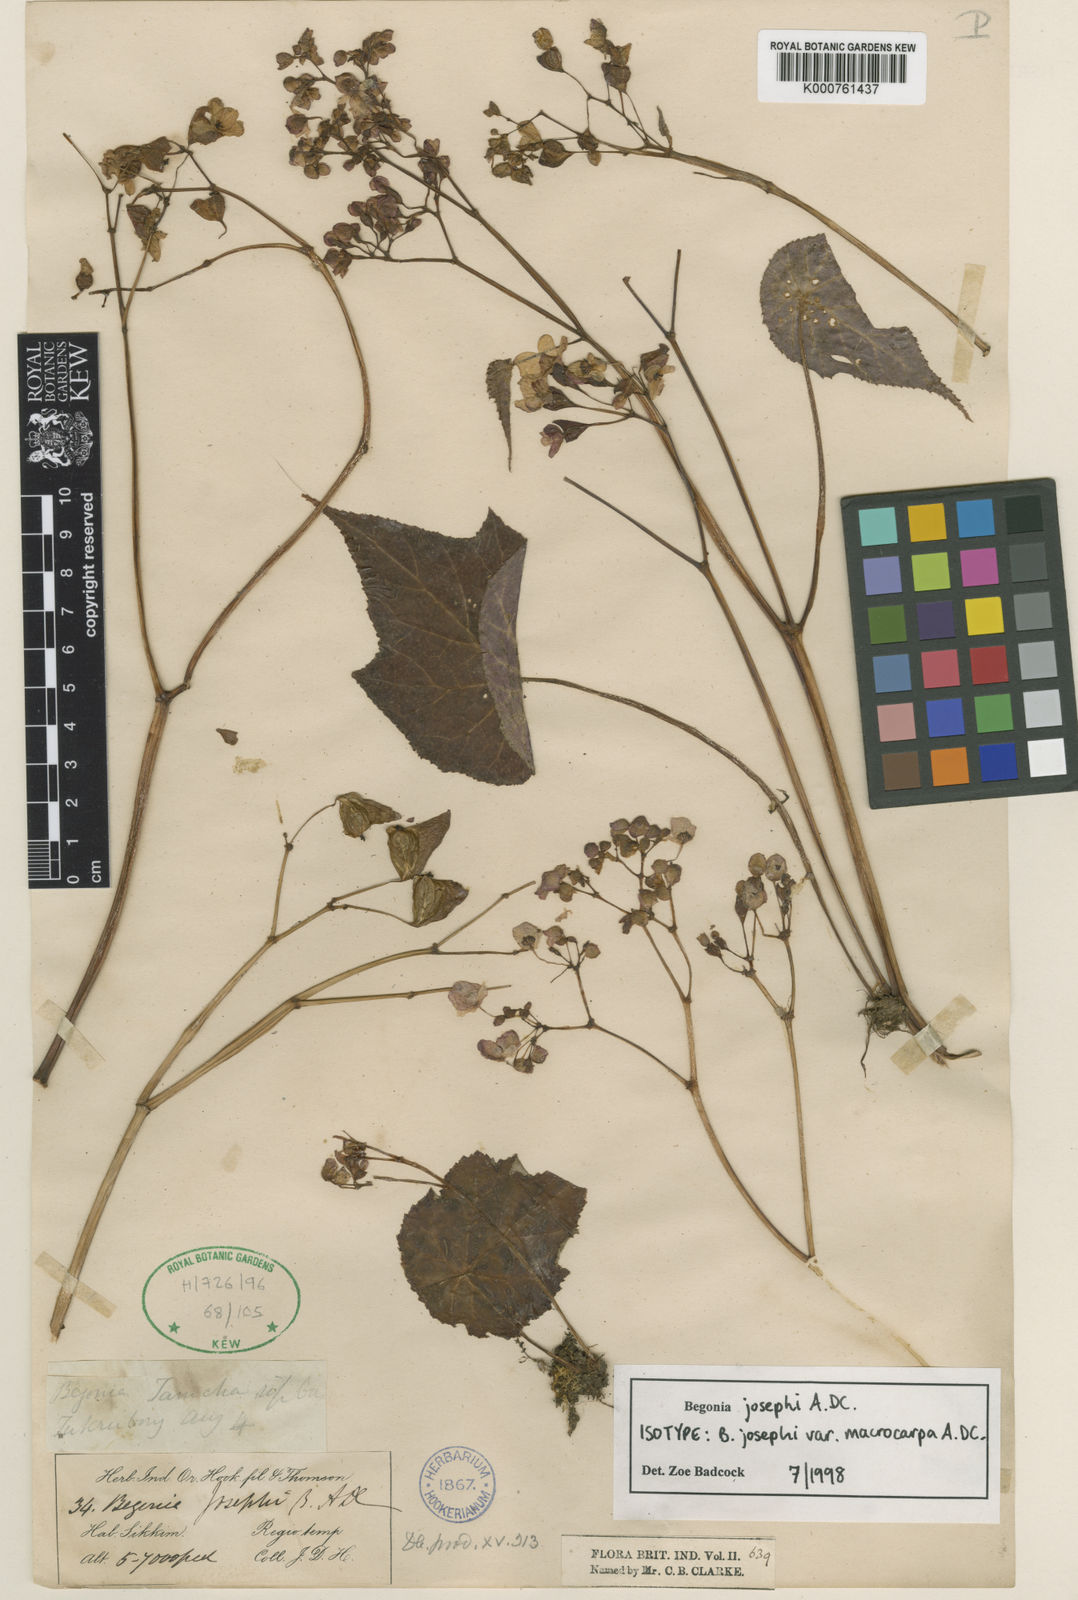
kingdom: Plantae
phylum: Tracheophyta
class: Magnoliopsida
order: Cucurbitales
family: Begoniaceae
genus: Begonia
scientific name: Begonia josephi
